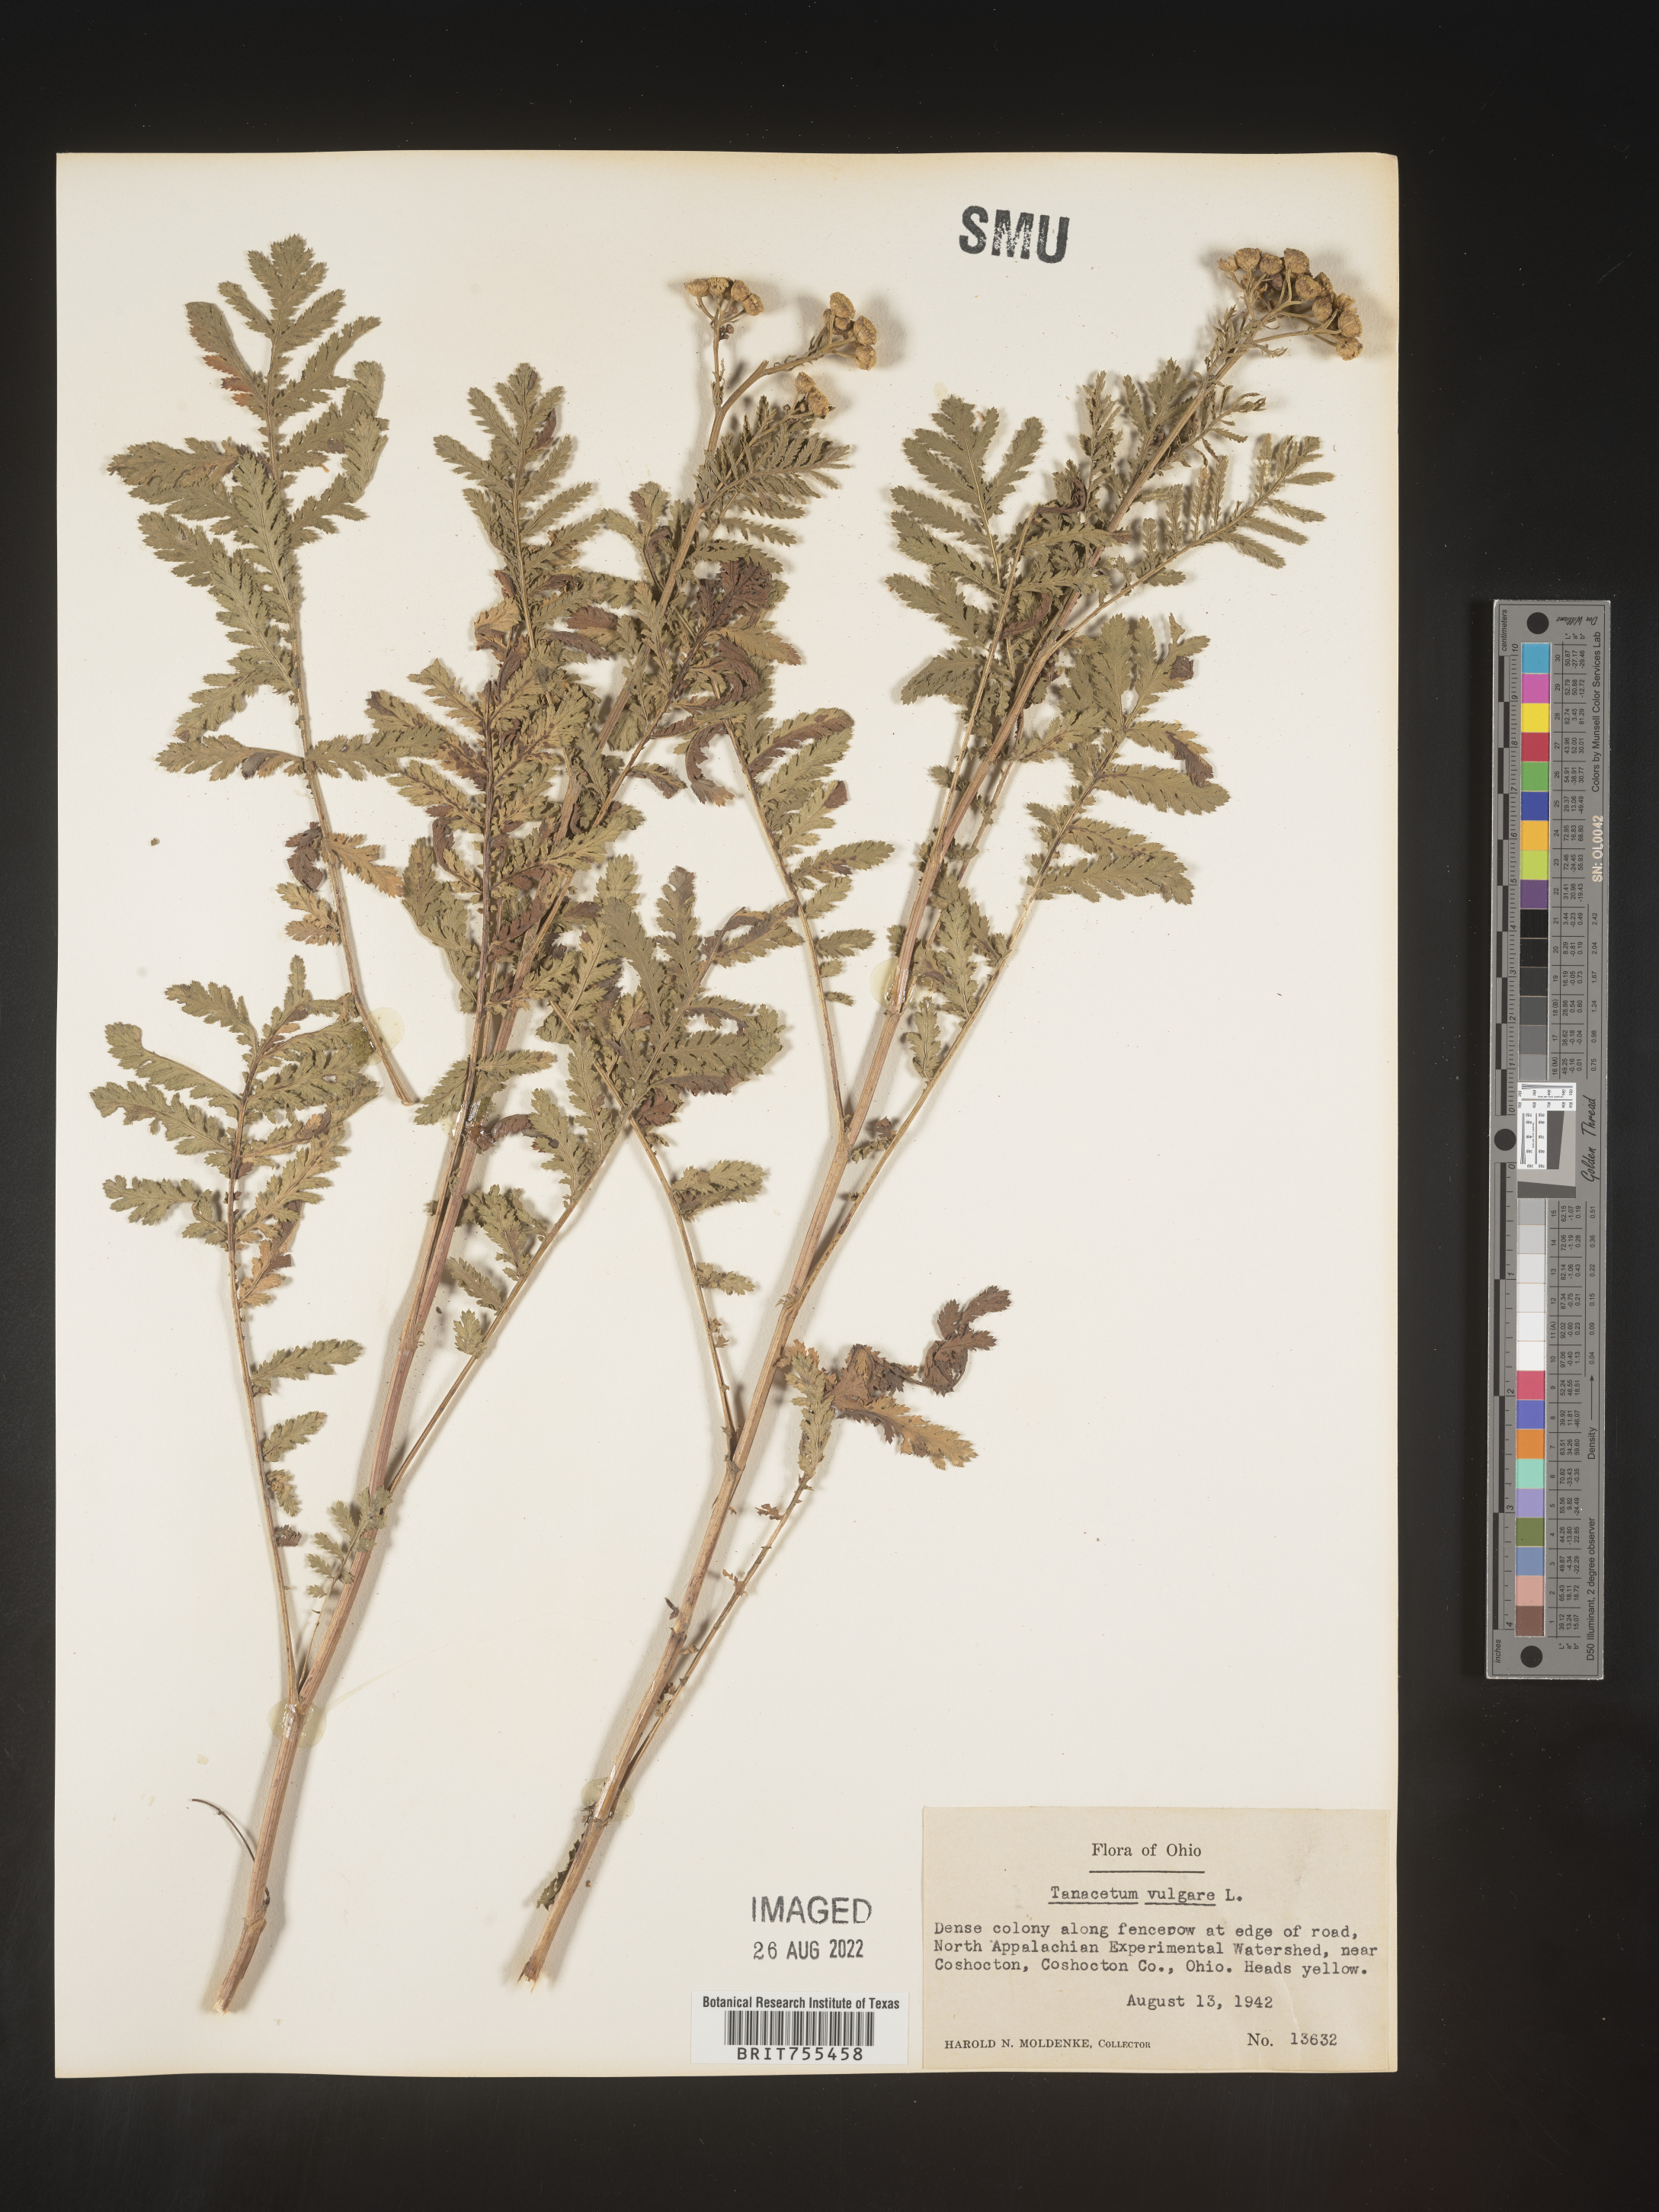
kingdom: Plantae
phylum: Tracheophyta
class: Magnoliopsida
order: Asterales
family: Asteraceae
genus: Tanacetum
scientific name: Tanacetum vulgare
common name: Common tansy
